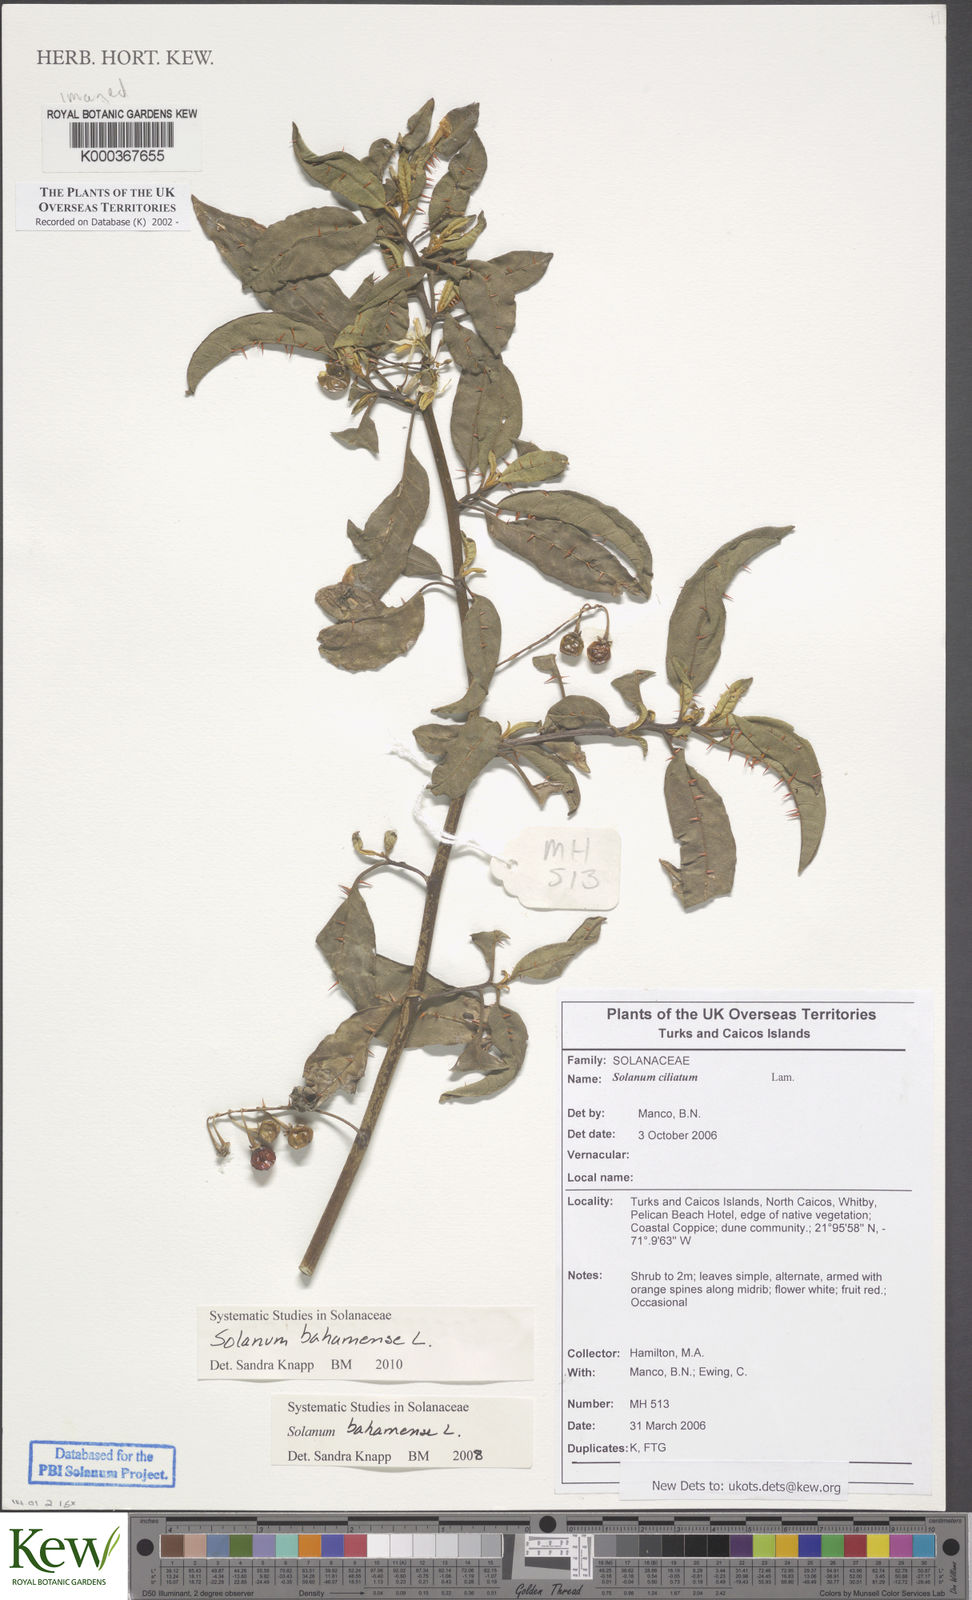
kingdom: Plantae
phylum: Tracheophyta
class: Magnoliopsida
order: Solanales
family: Solanaceae
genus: Solanum
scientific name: Solanum bahamense
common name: Canker-berry
